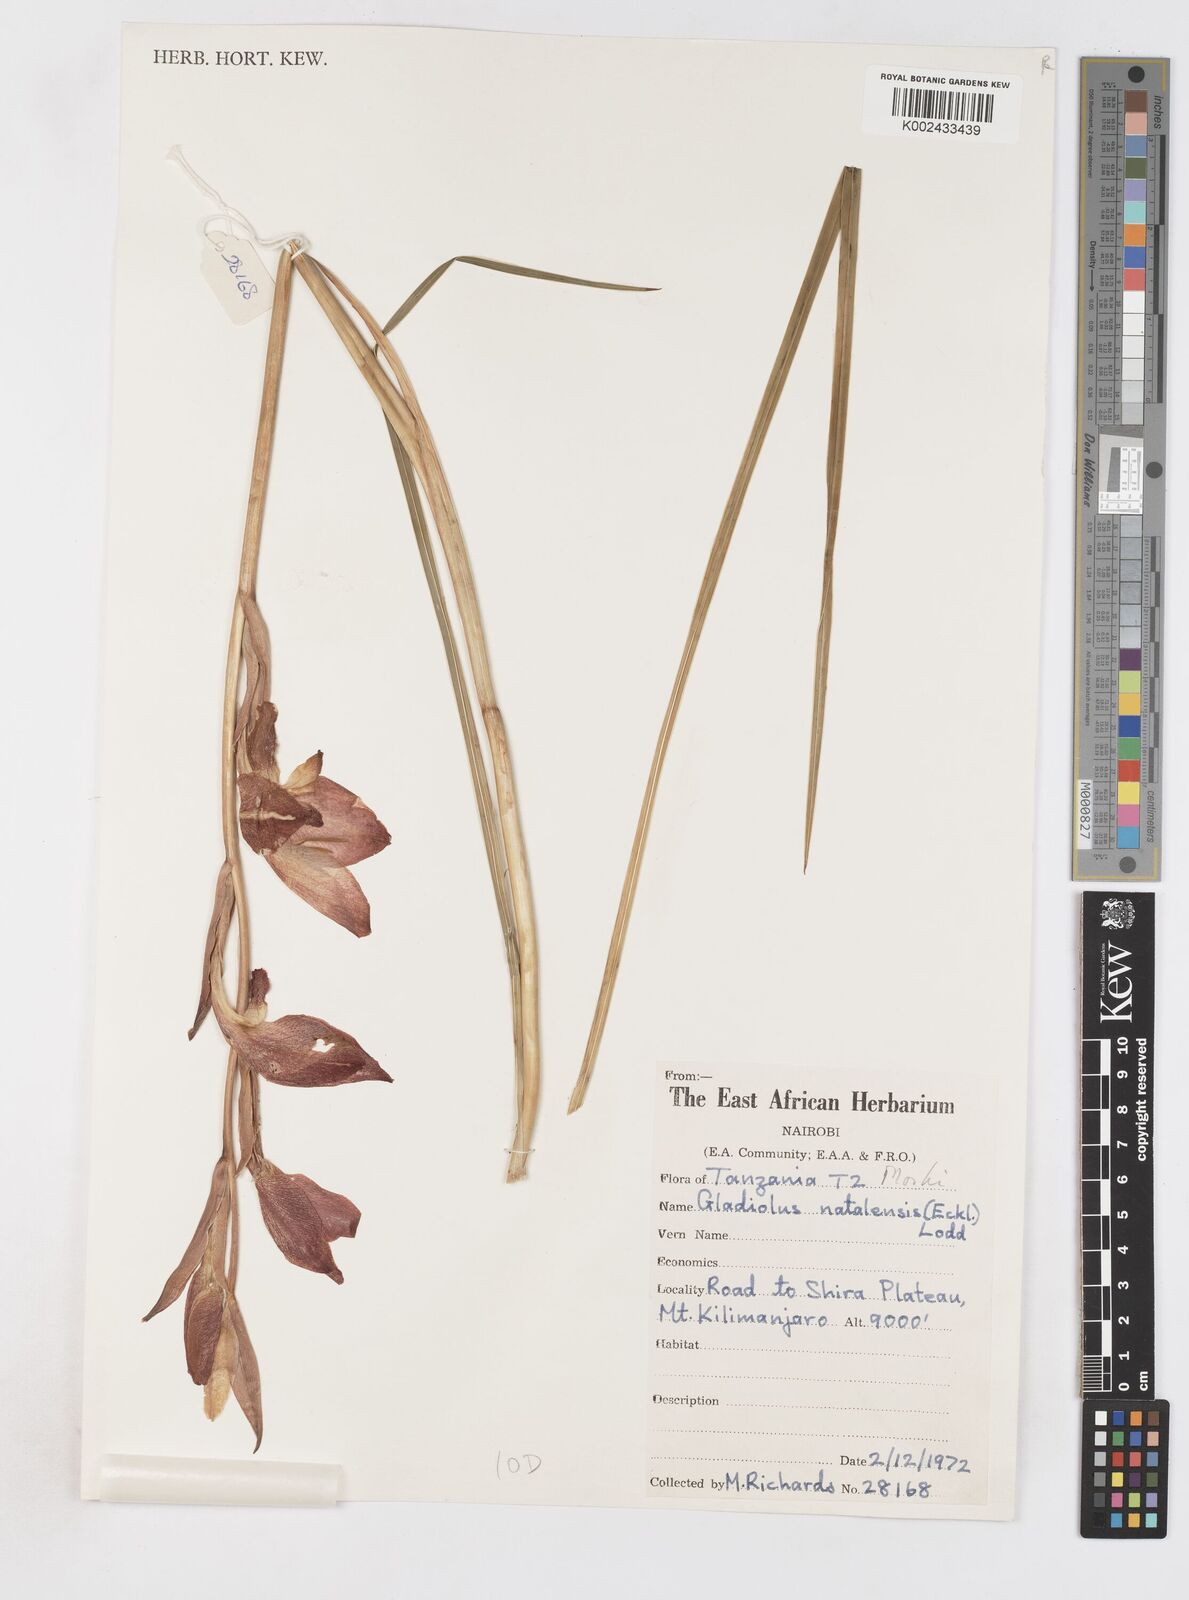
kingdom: Plantae
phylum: Tracheophyta
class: Liliopsida
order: Asparagales
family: Iridaceae
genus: Gladiolus
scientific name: Gladiolus dalenii
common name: Cornflag
